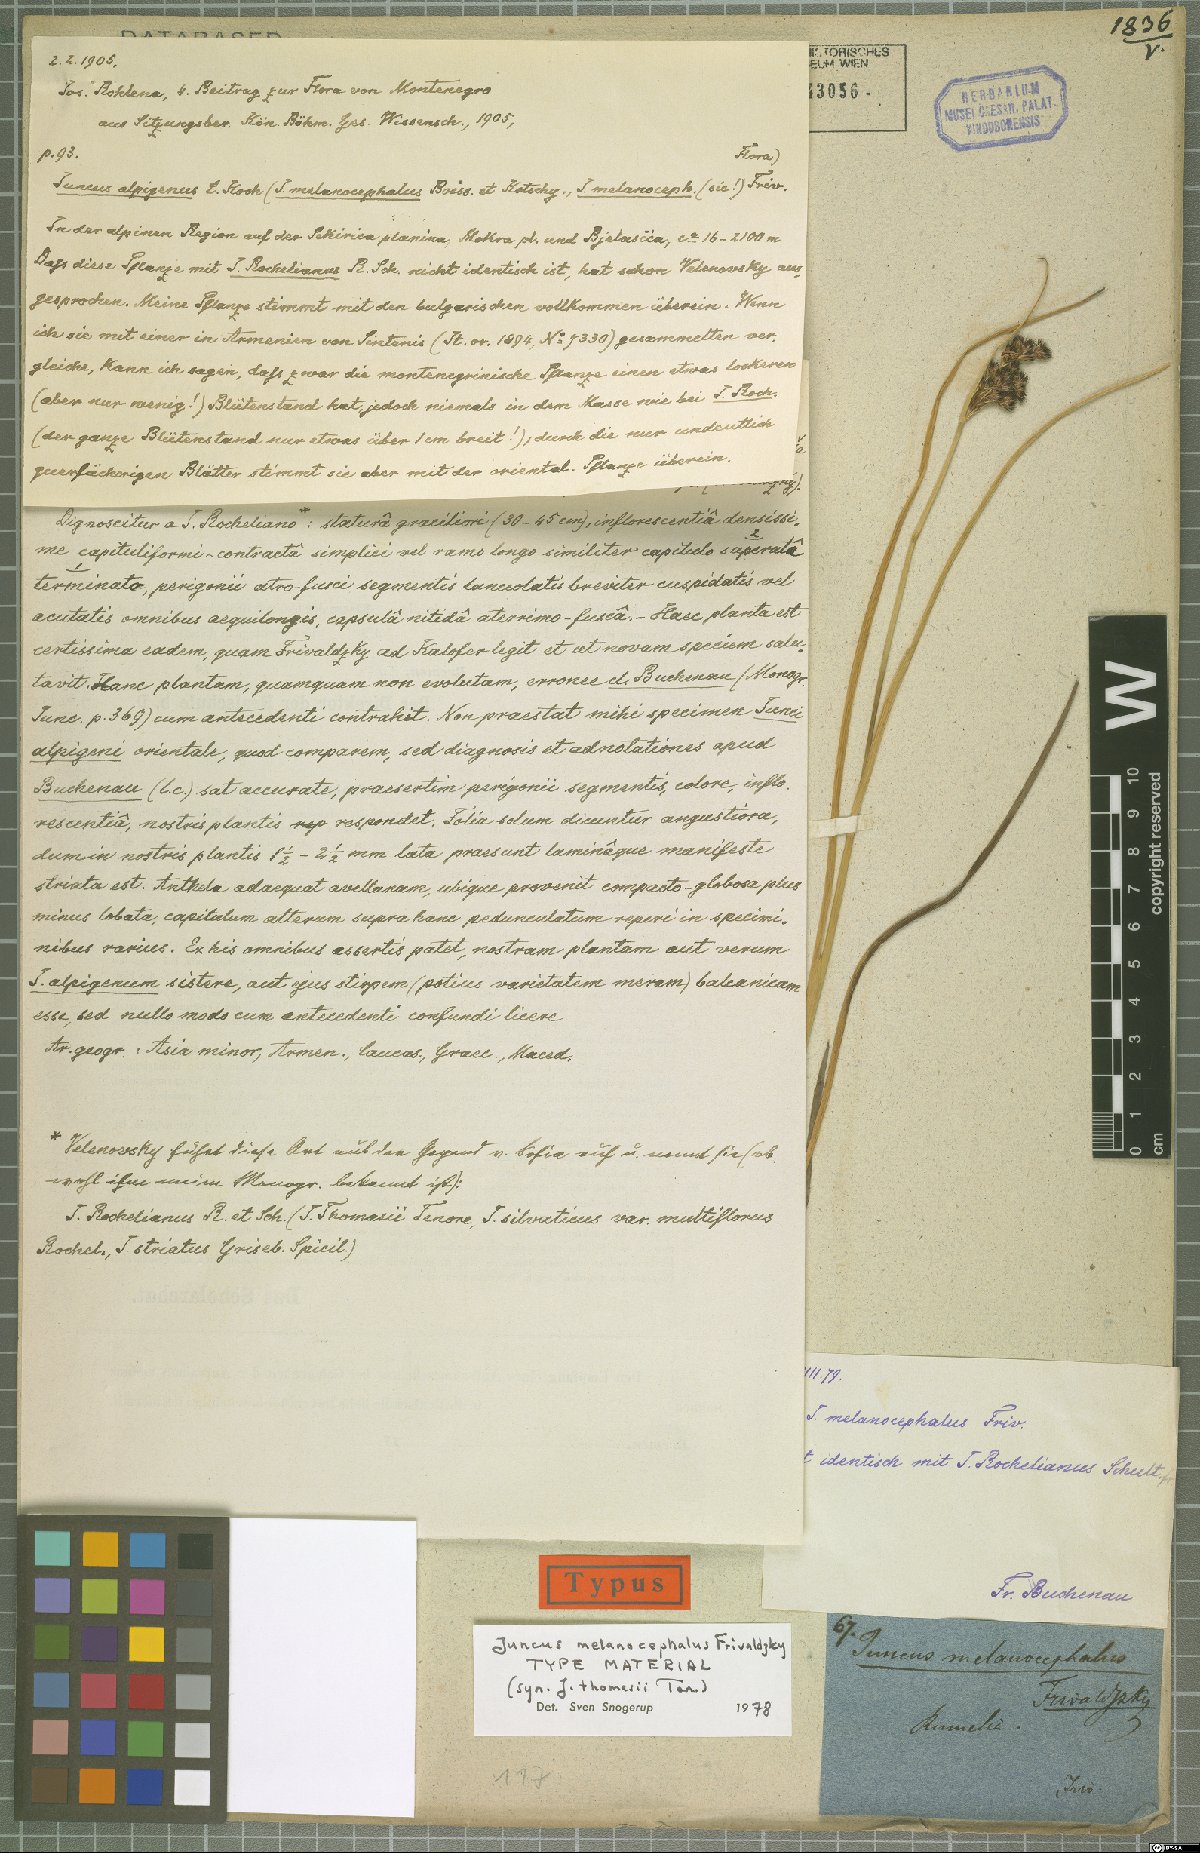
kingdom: Plantae
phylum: Tracheophyta
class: Liliopsida
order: Poales
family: Juncaceae
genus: Juncus
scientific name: Juncus thomasii
